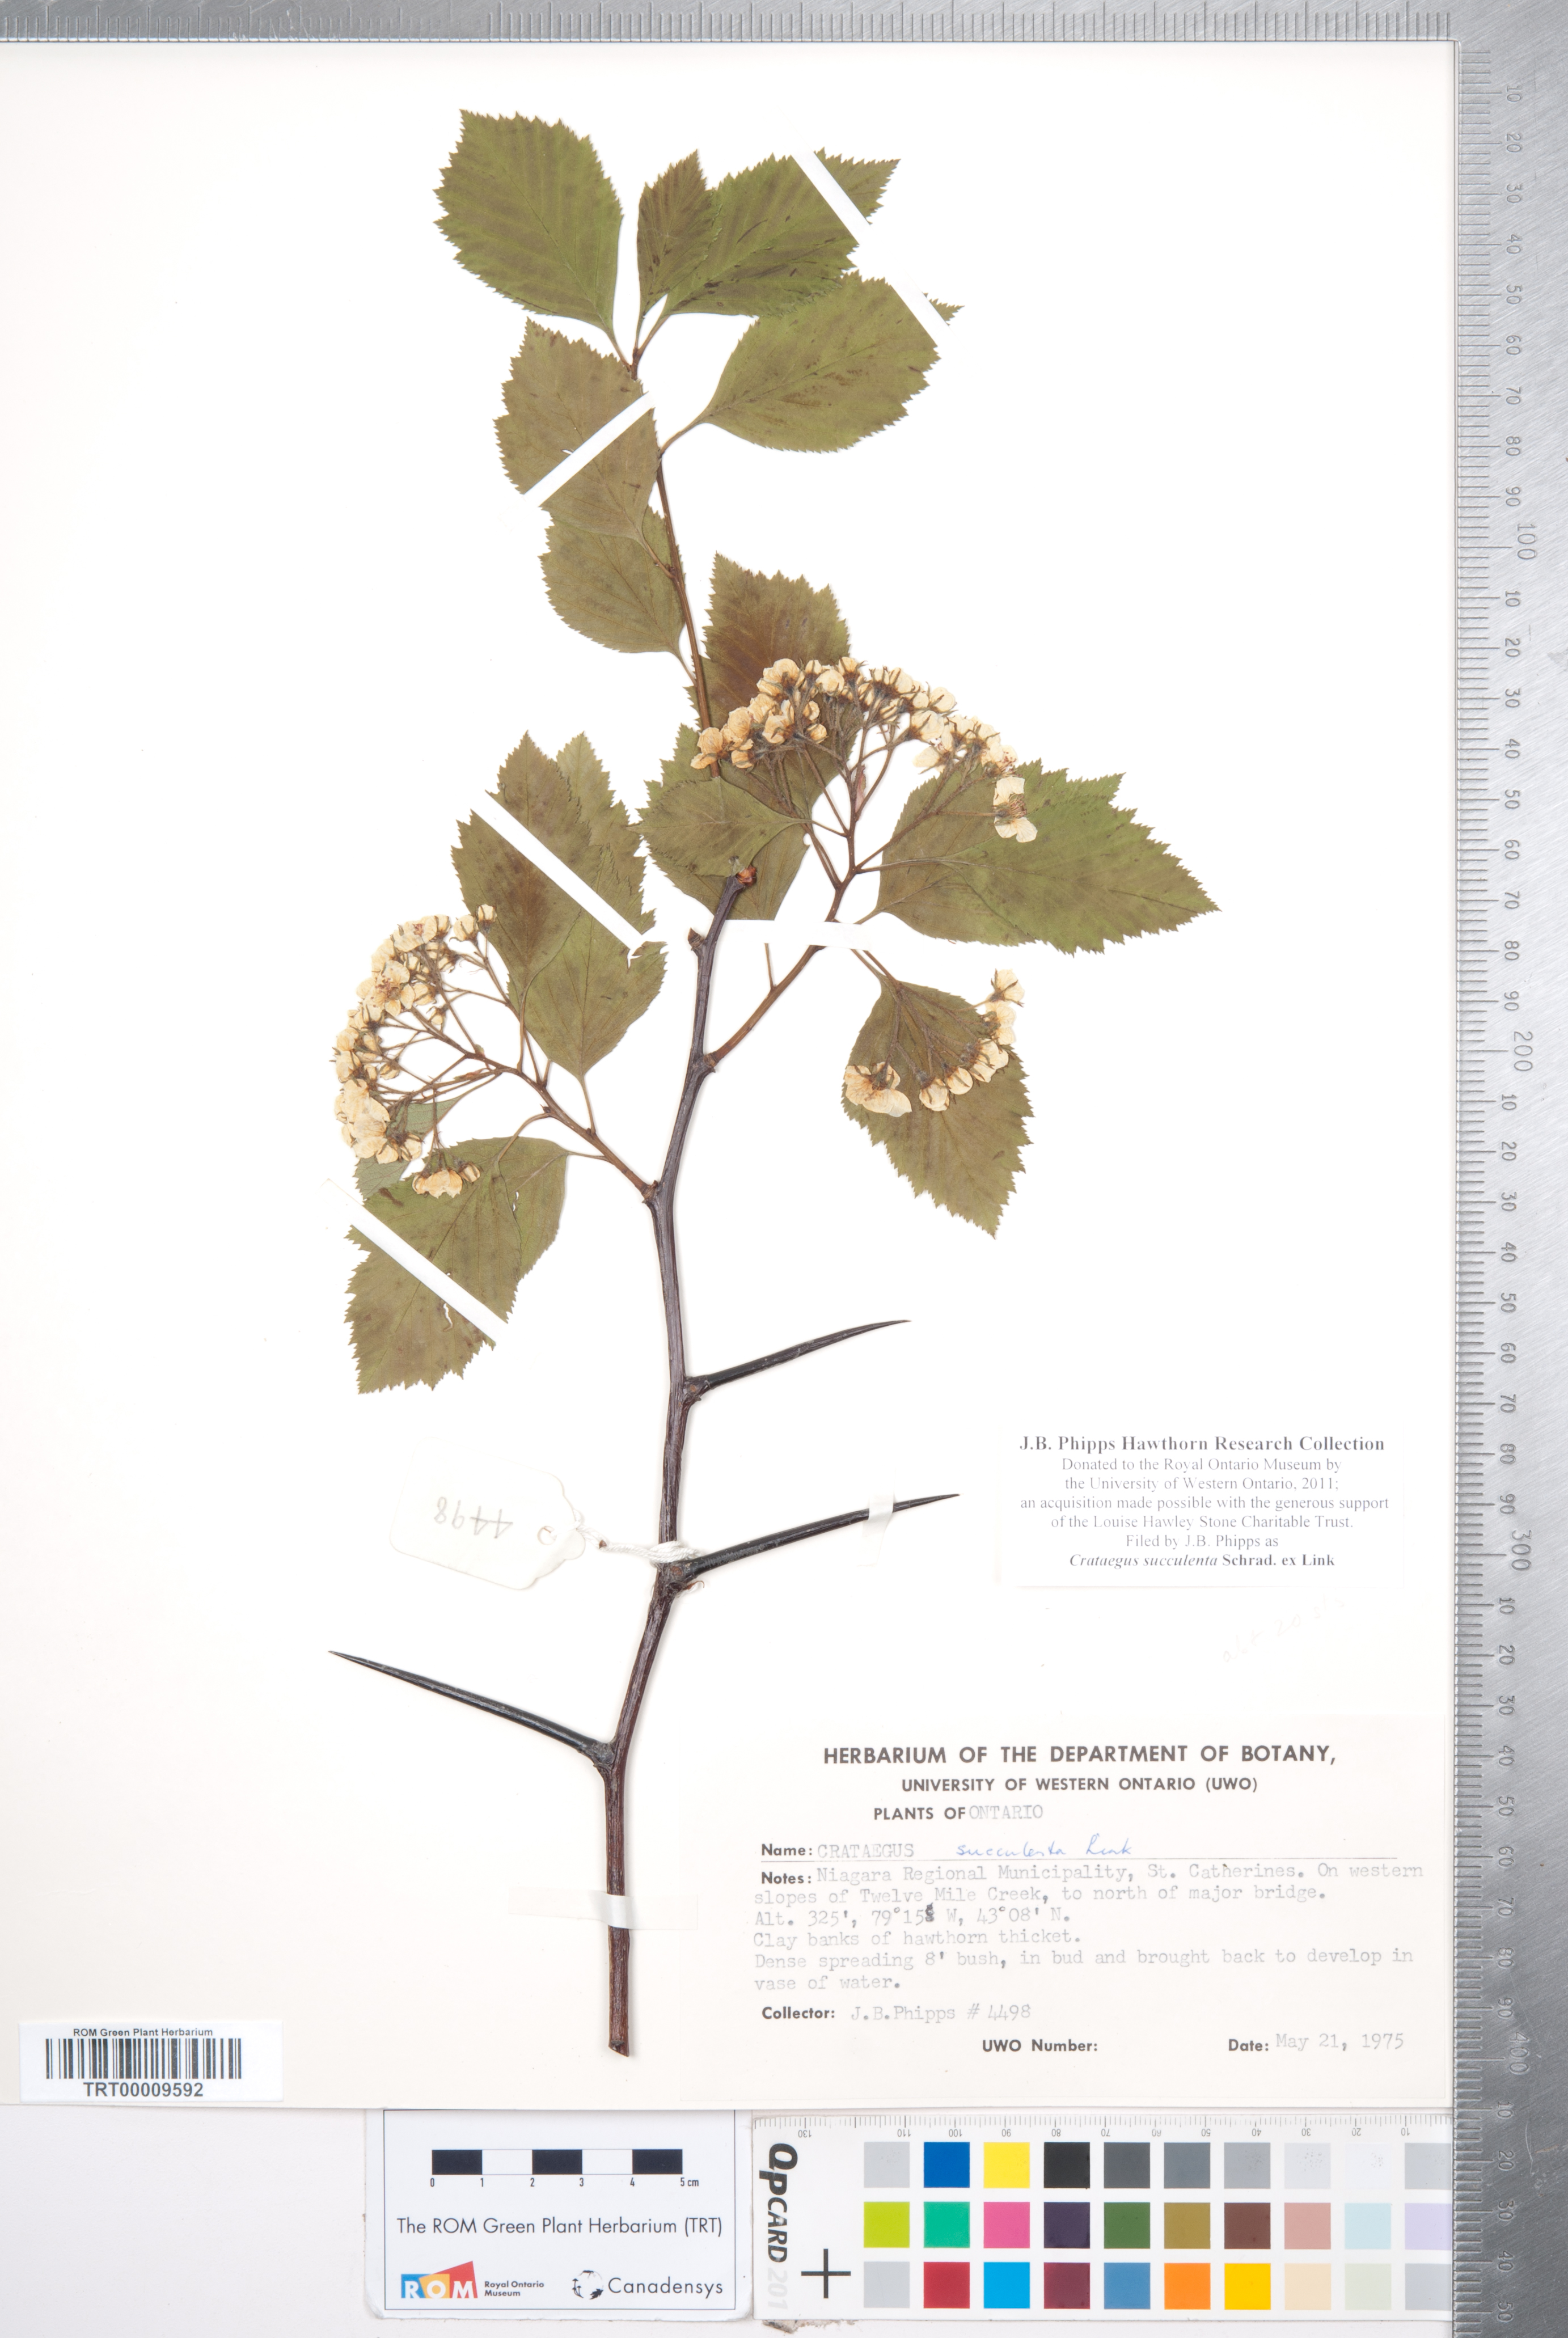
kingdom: Plantae
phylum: Tracheophyta
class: Magnoliopsida
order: Rosales
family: Rosaceae
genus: Crataegus
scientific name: Crataegus succulenta
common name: Fleshy hawthorn
